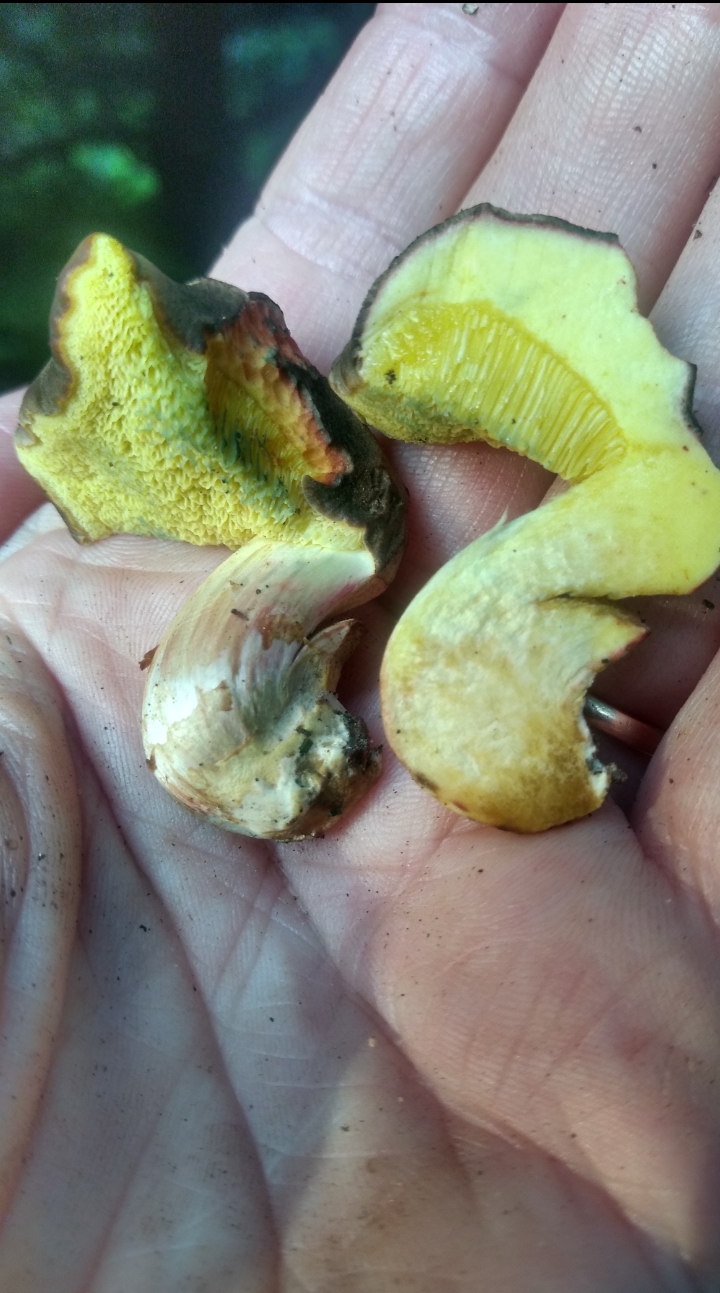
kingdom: Fungi
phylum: Basidiomycota
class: Agaricomycetes
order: Boletales
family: Boletaceae
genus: Xerocomellus
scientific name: Xerocomellus
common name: dværgrørhat
